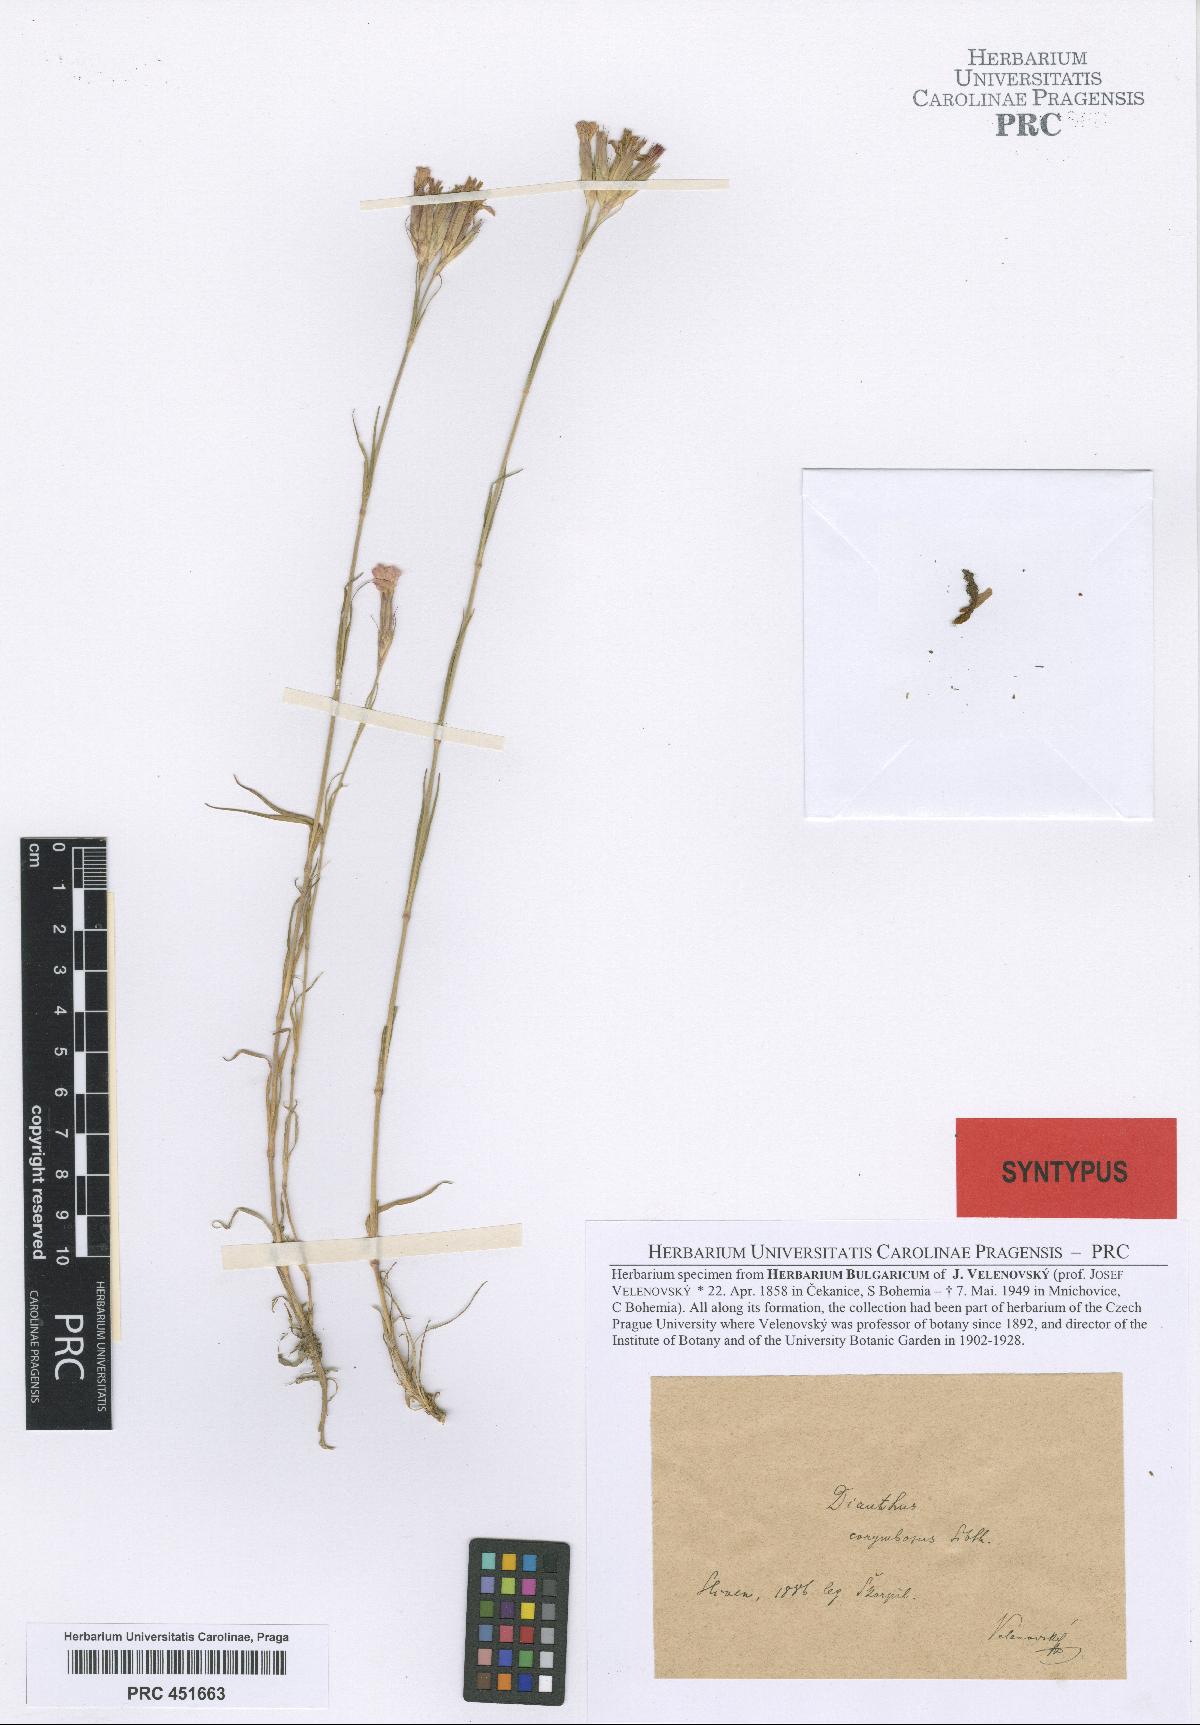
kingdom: Plantae
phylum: Tracheophyta
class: Magnoliopsida
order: Caryophyllales
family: Caryophyllaceae
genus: Dianthus
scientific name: Dianthus armeria
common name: Deptford pink
